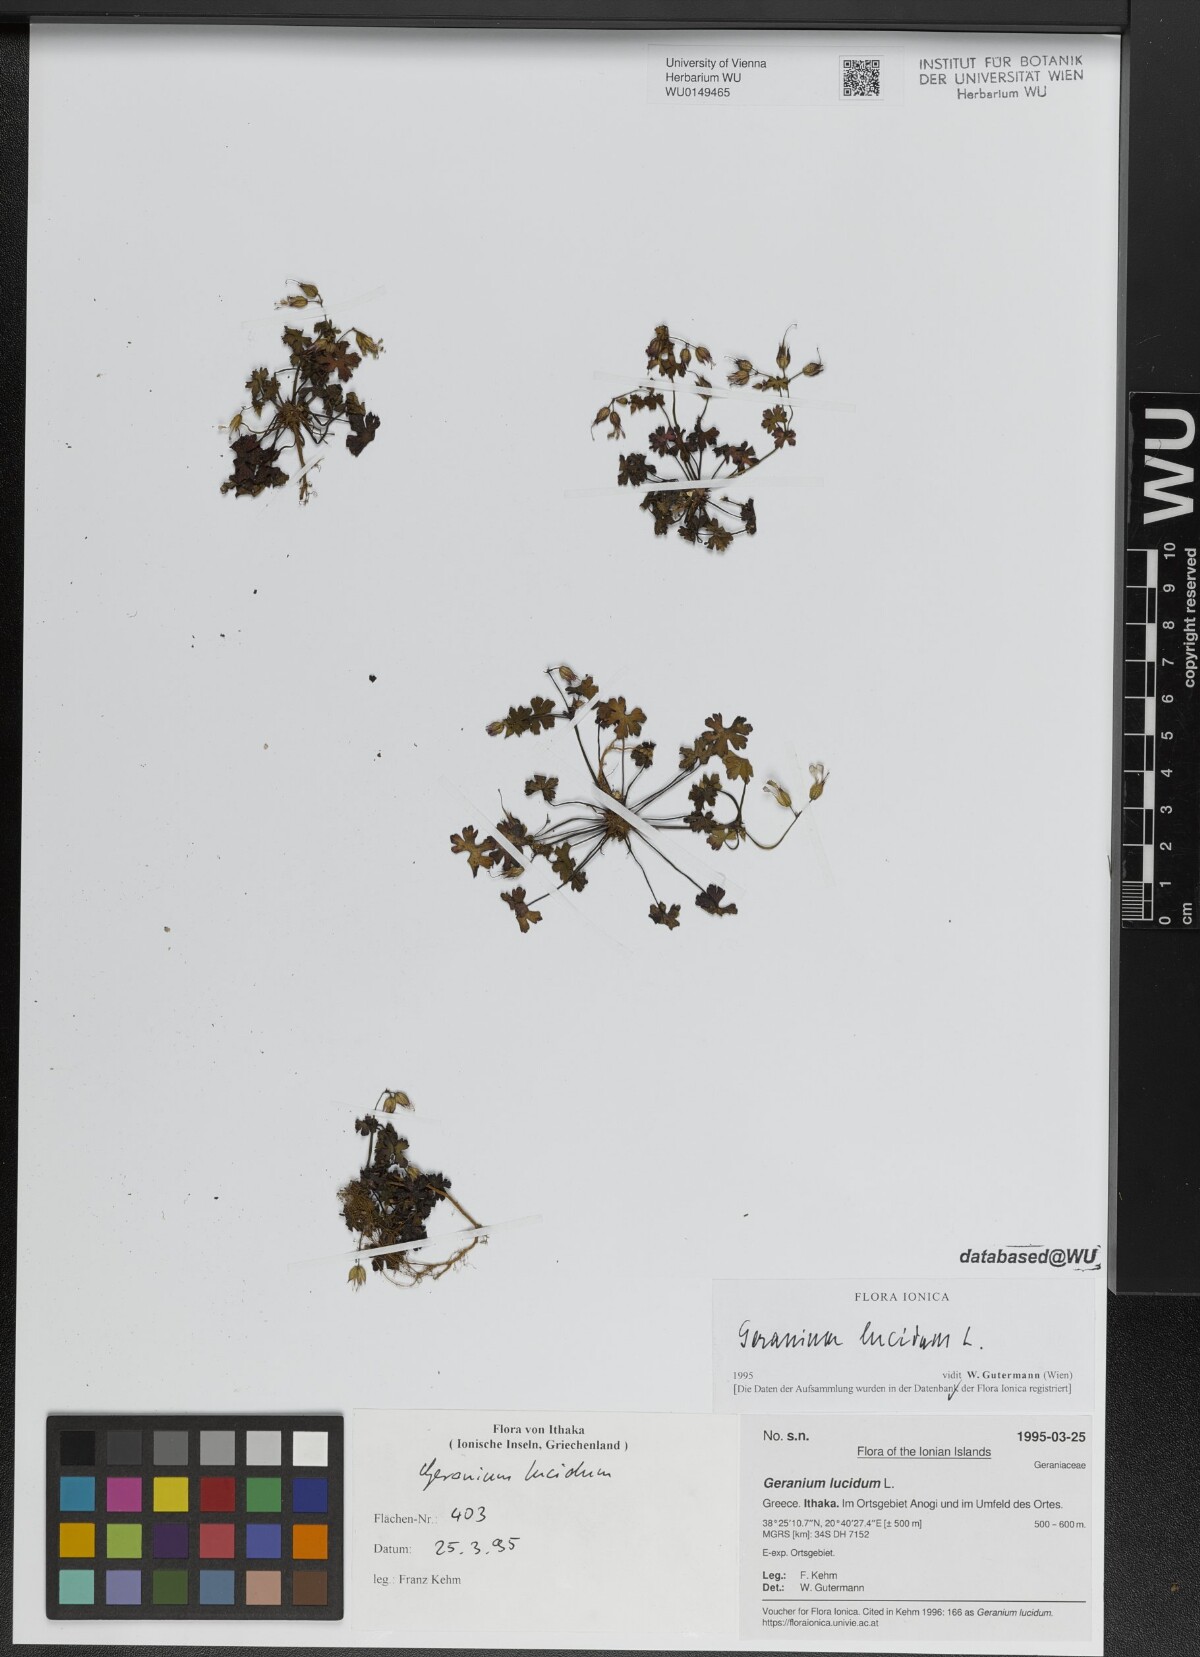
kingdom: Plantae
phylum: Tracheophyta
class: Magnoliopsida
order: Geraniales
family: Geraniaceae
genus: Geranium
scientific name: Geranium lucidum
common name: Shining crane's-bill
